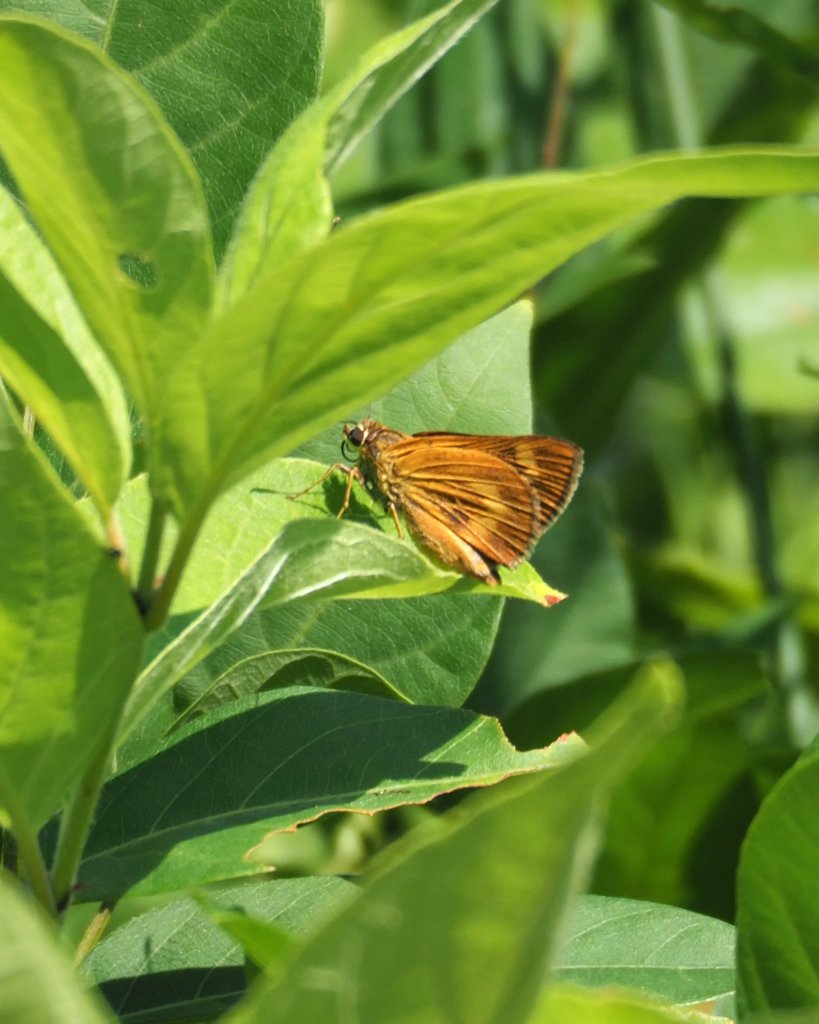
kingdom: Animalia
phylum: Arthropoda
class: Insecta
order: Lepidoptera
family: Hesperiidae
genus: Problema
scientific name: Problema byssus
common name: Byssus Skipper
